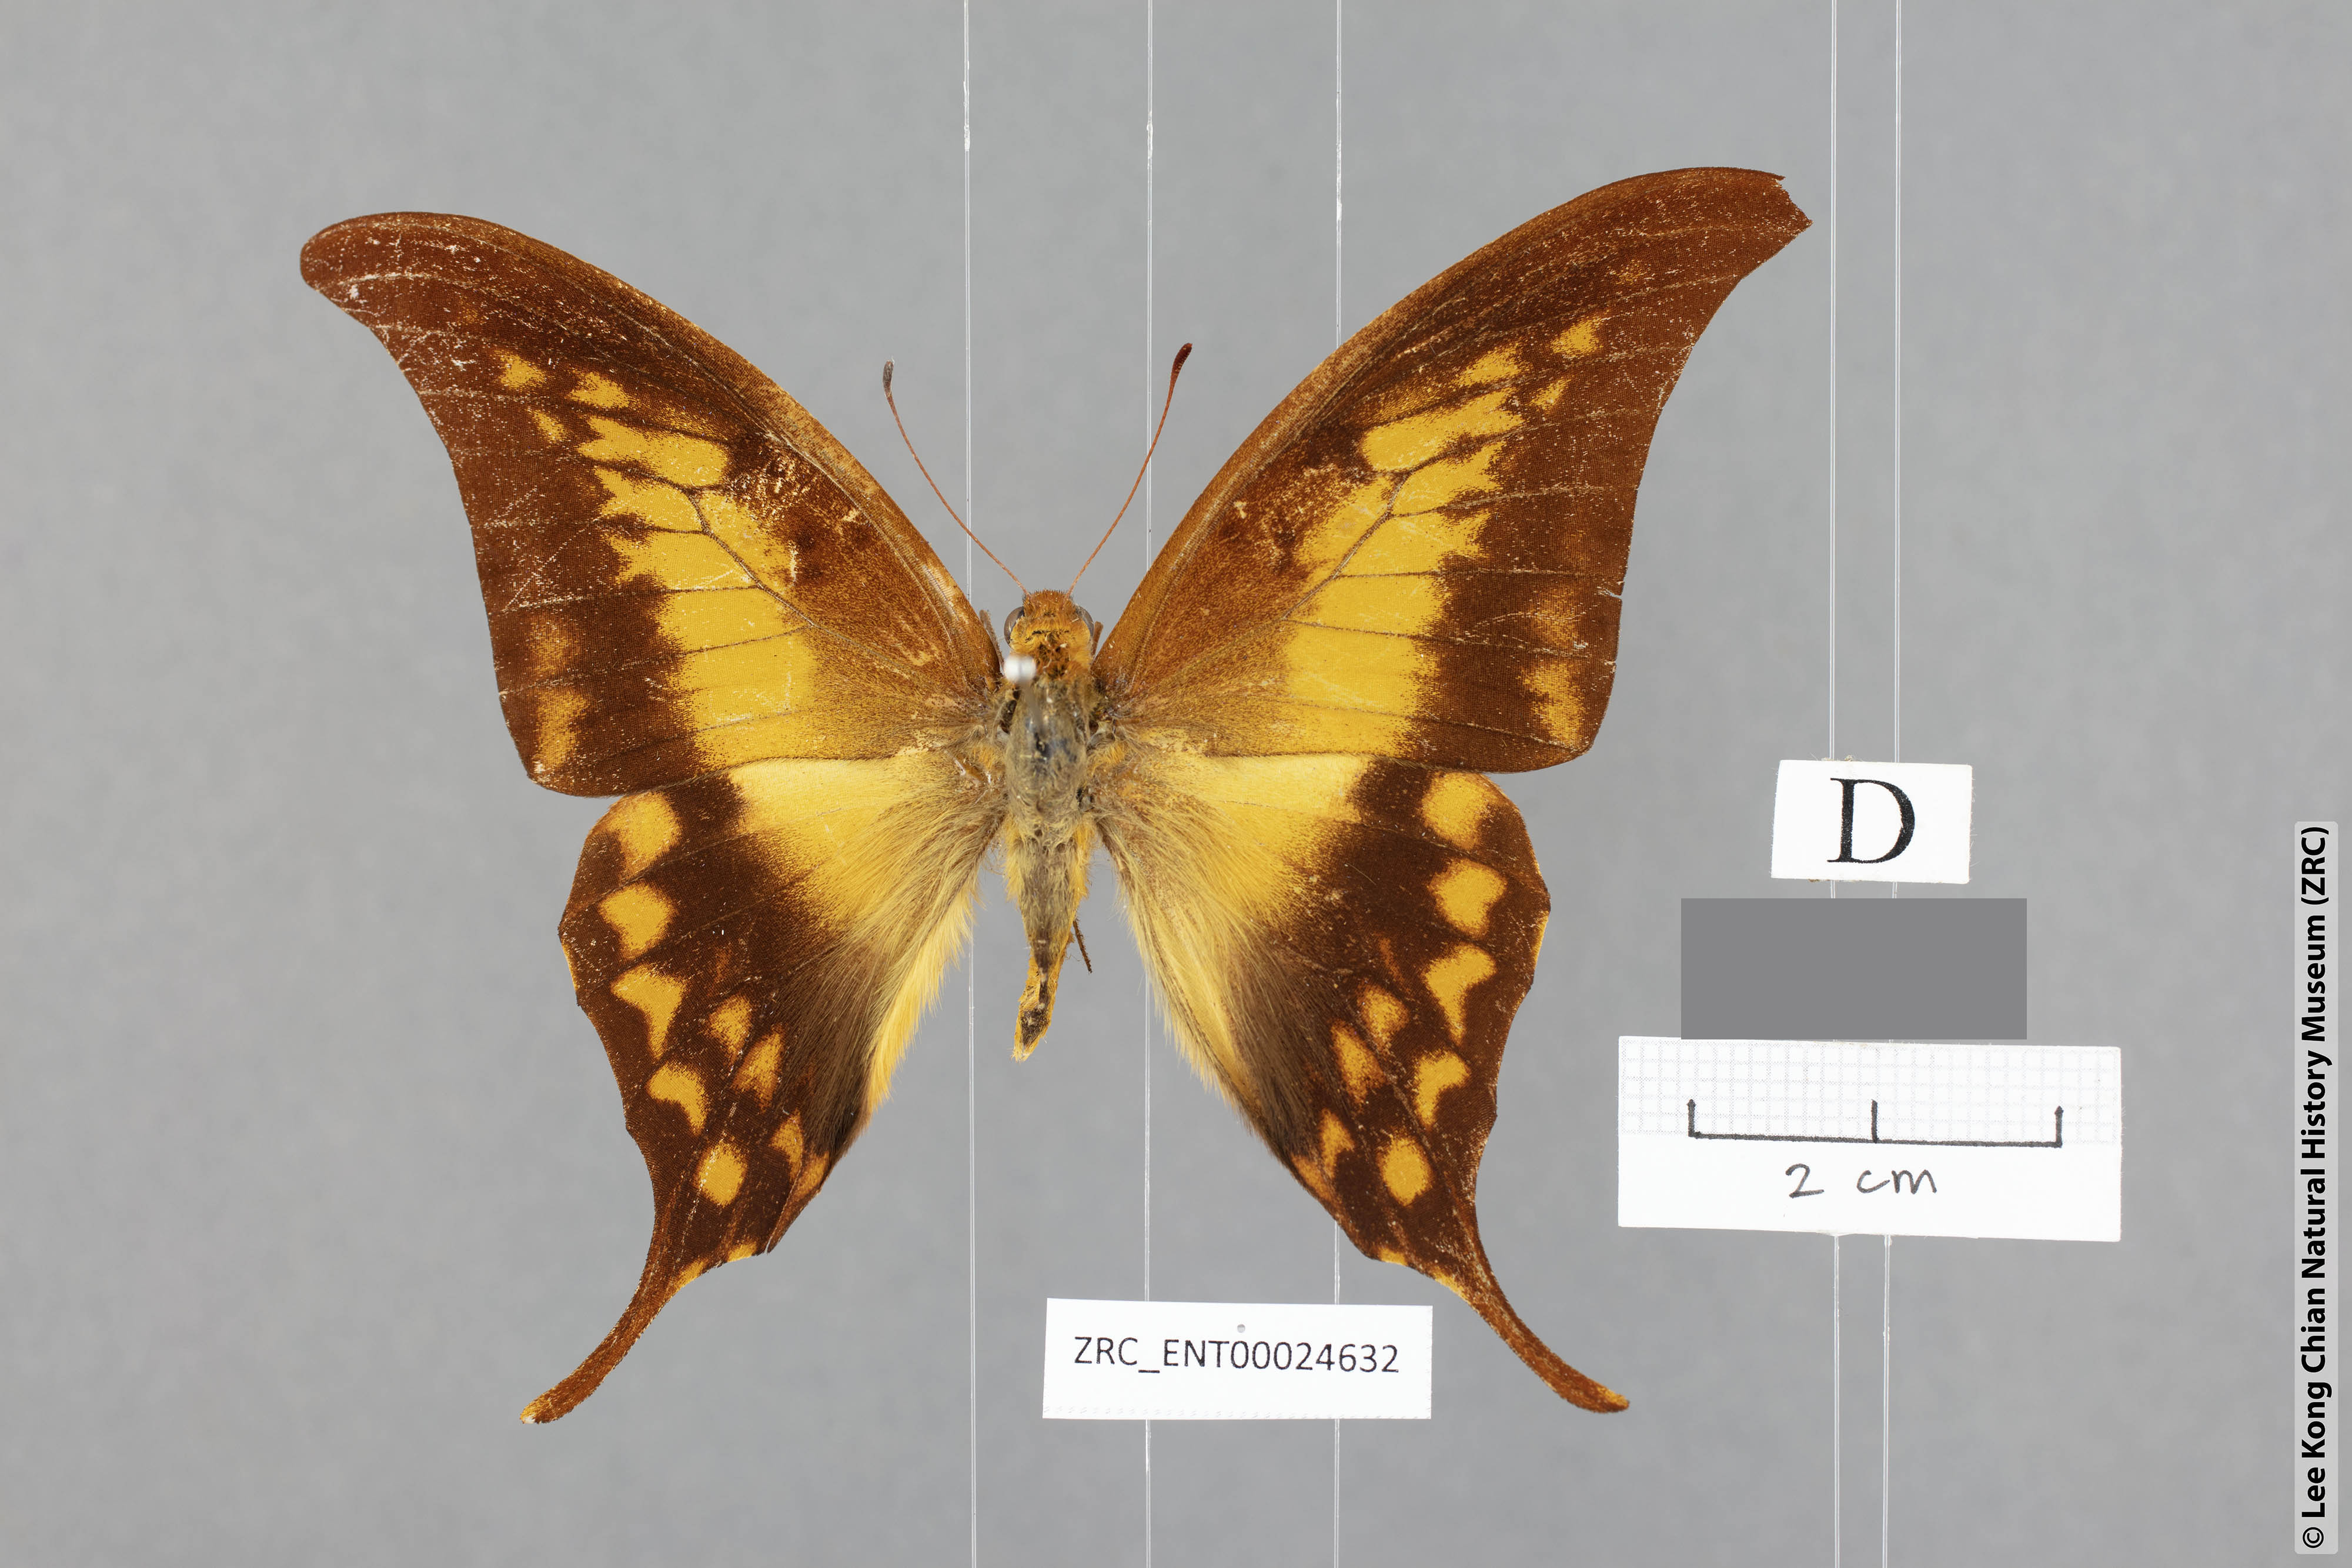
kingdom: Animalia
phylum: Arthropoda
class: Insecta
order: Lepidoptera
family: Papilionidae
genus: Meandrusa
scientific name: Meandrusa payeni
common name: Outlet sword
